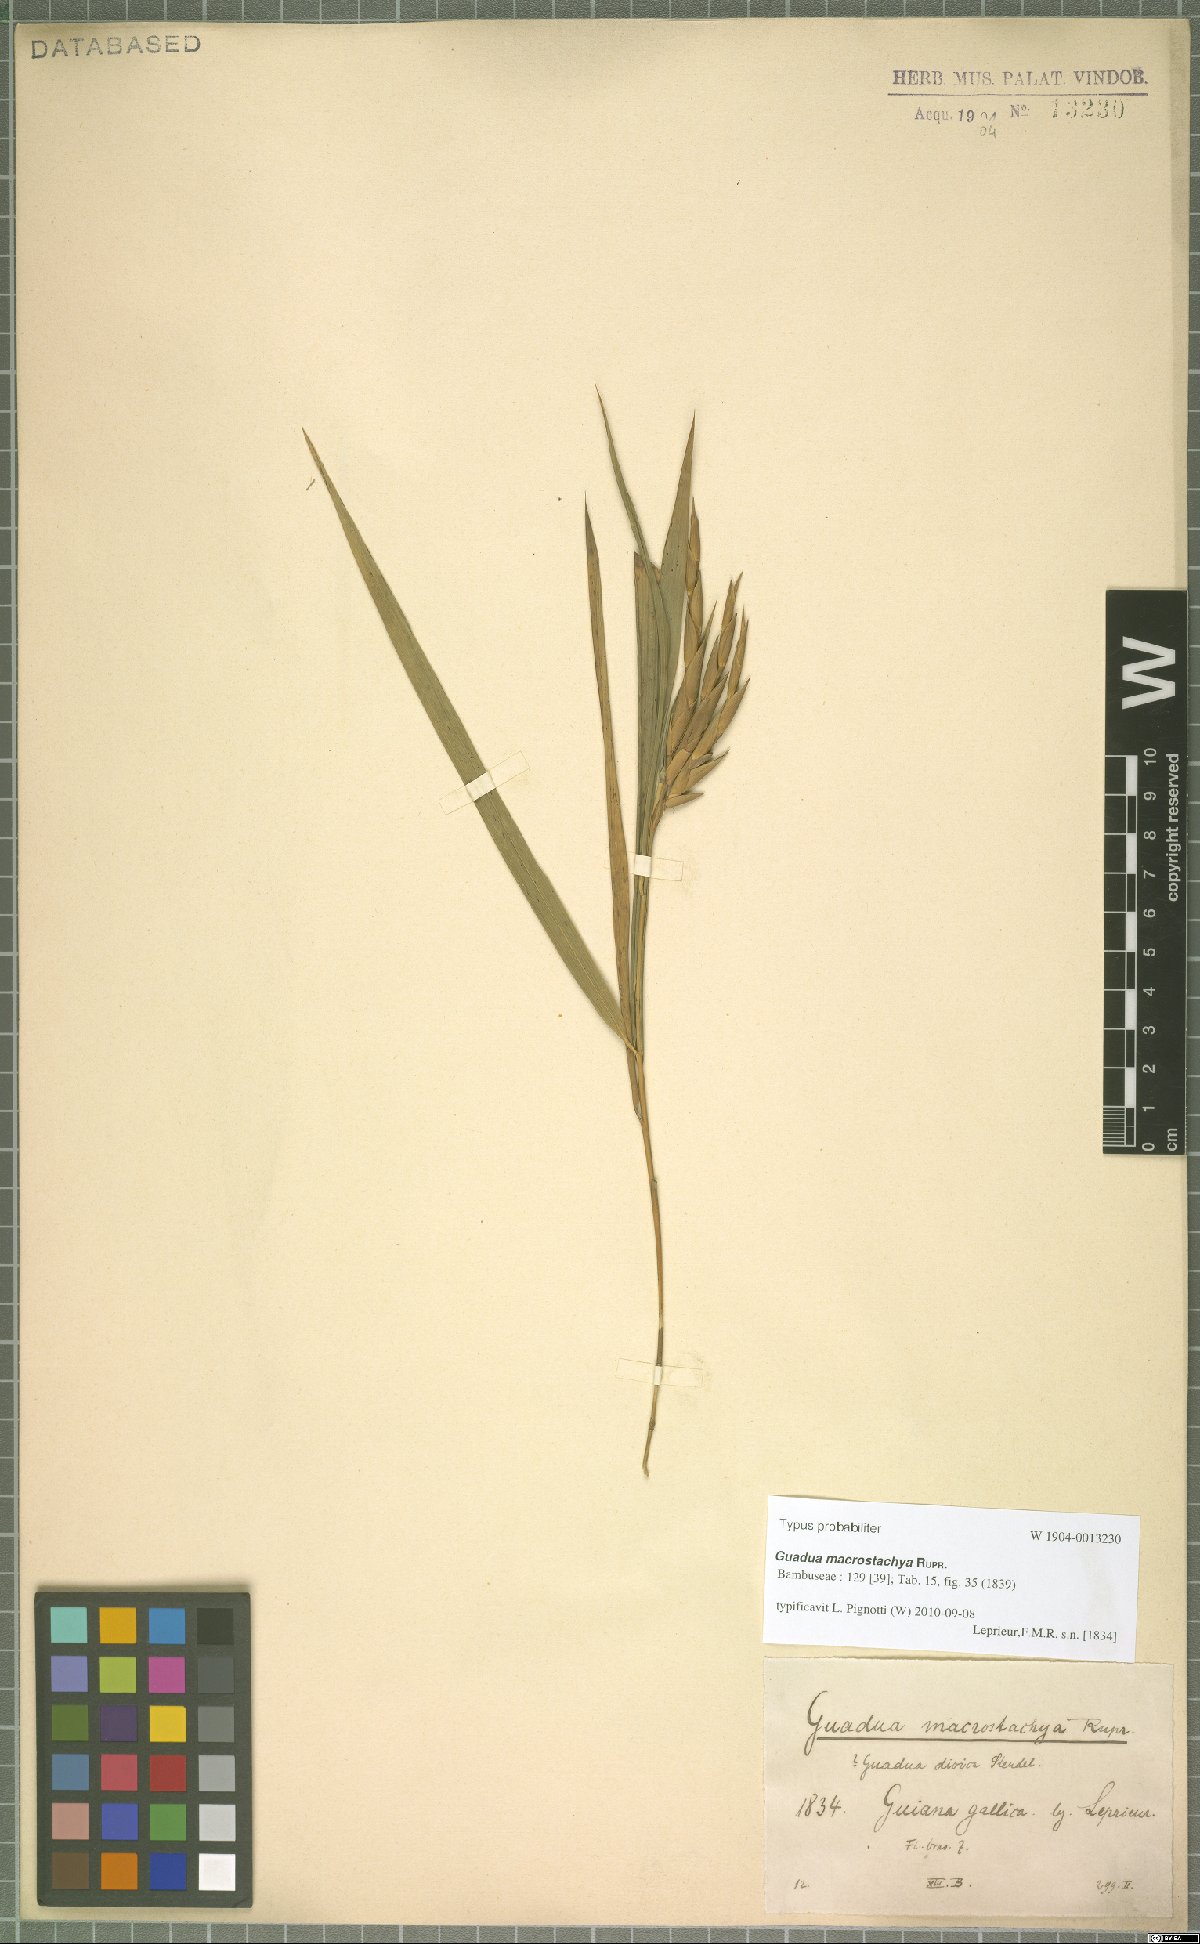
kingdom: Plantae
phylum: Tracheophyta
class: Liliopsida
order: Poales
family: Poaceae
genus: Guadua
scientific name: Guadua macrostachya
